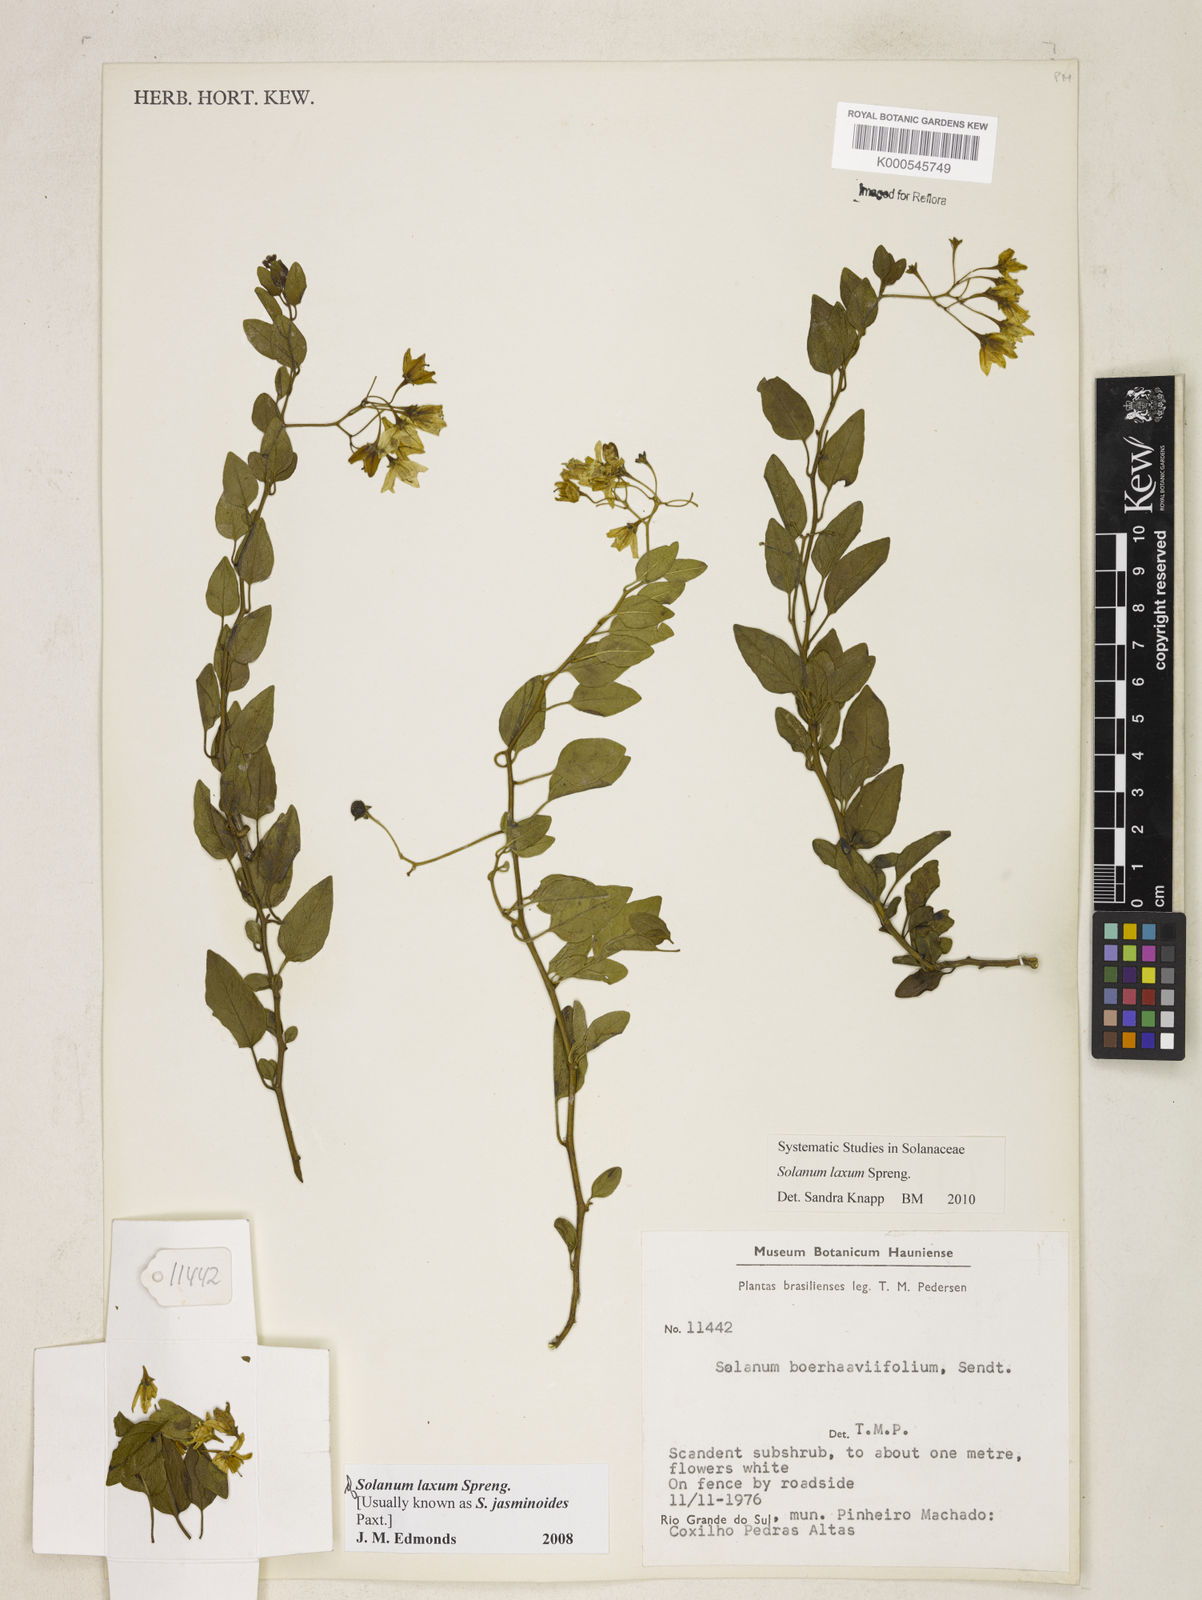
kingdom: Plantae
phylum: Tracheophyta
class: Magnoliopsida
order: Solanales
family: Solanaceae
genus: Solanum
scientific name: Solanum laxum
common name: Nightshade
